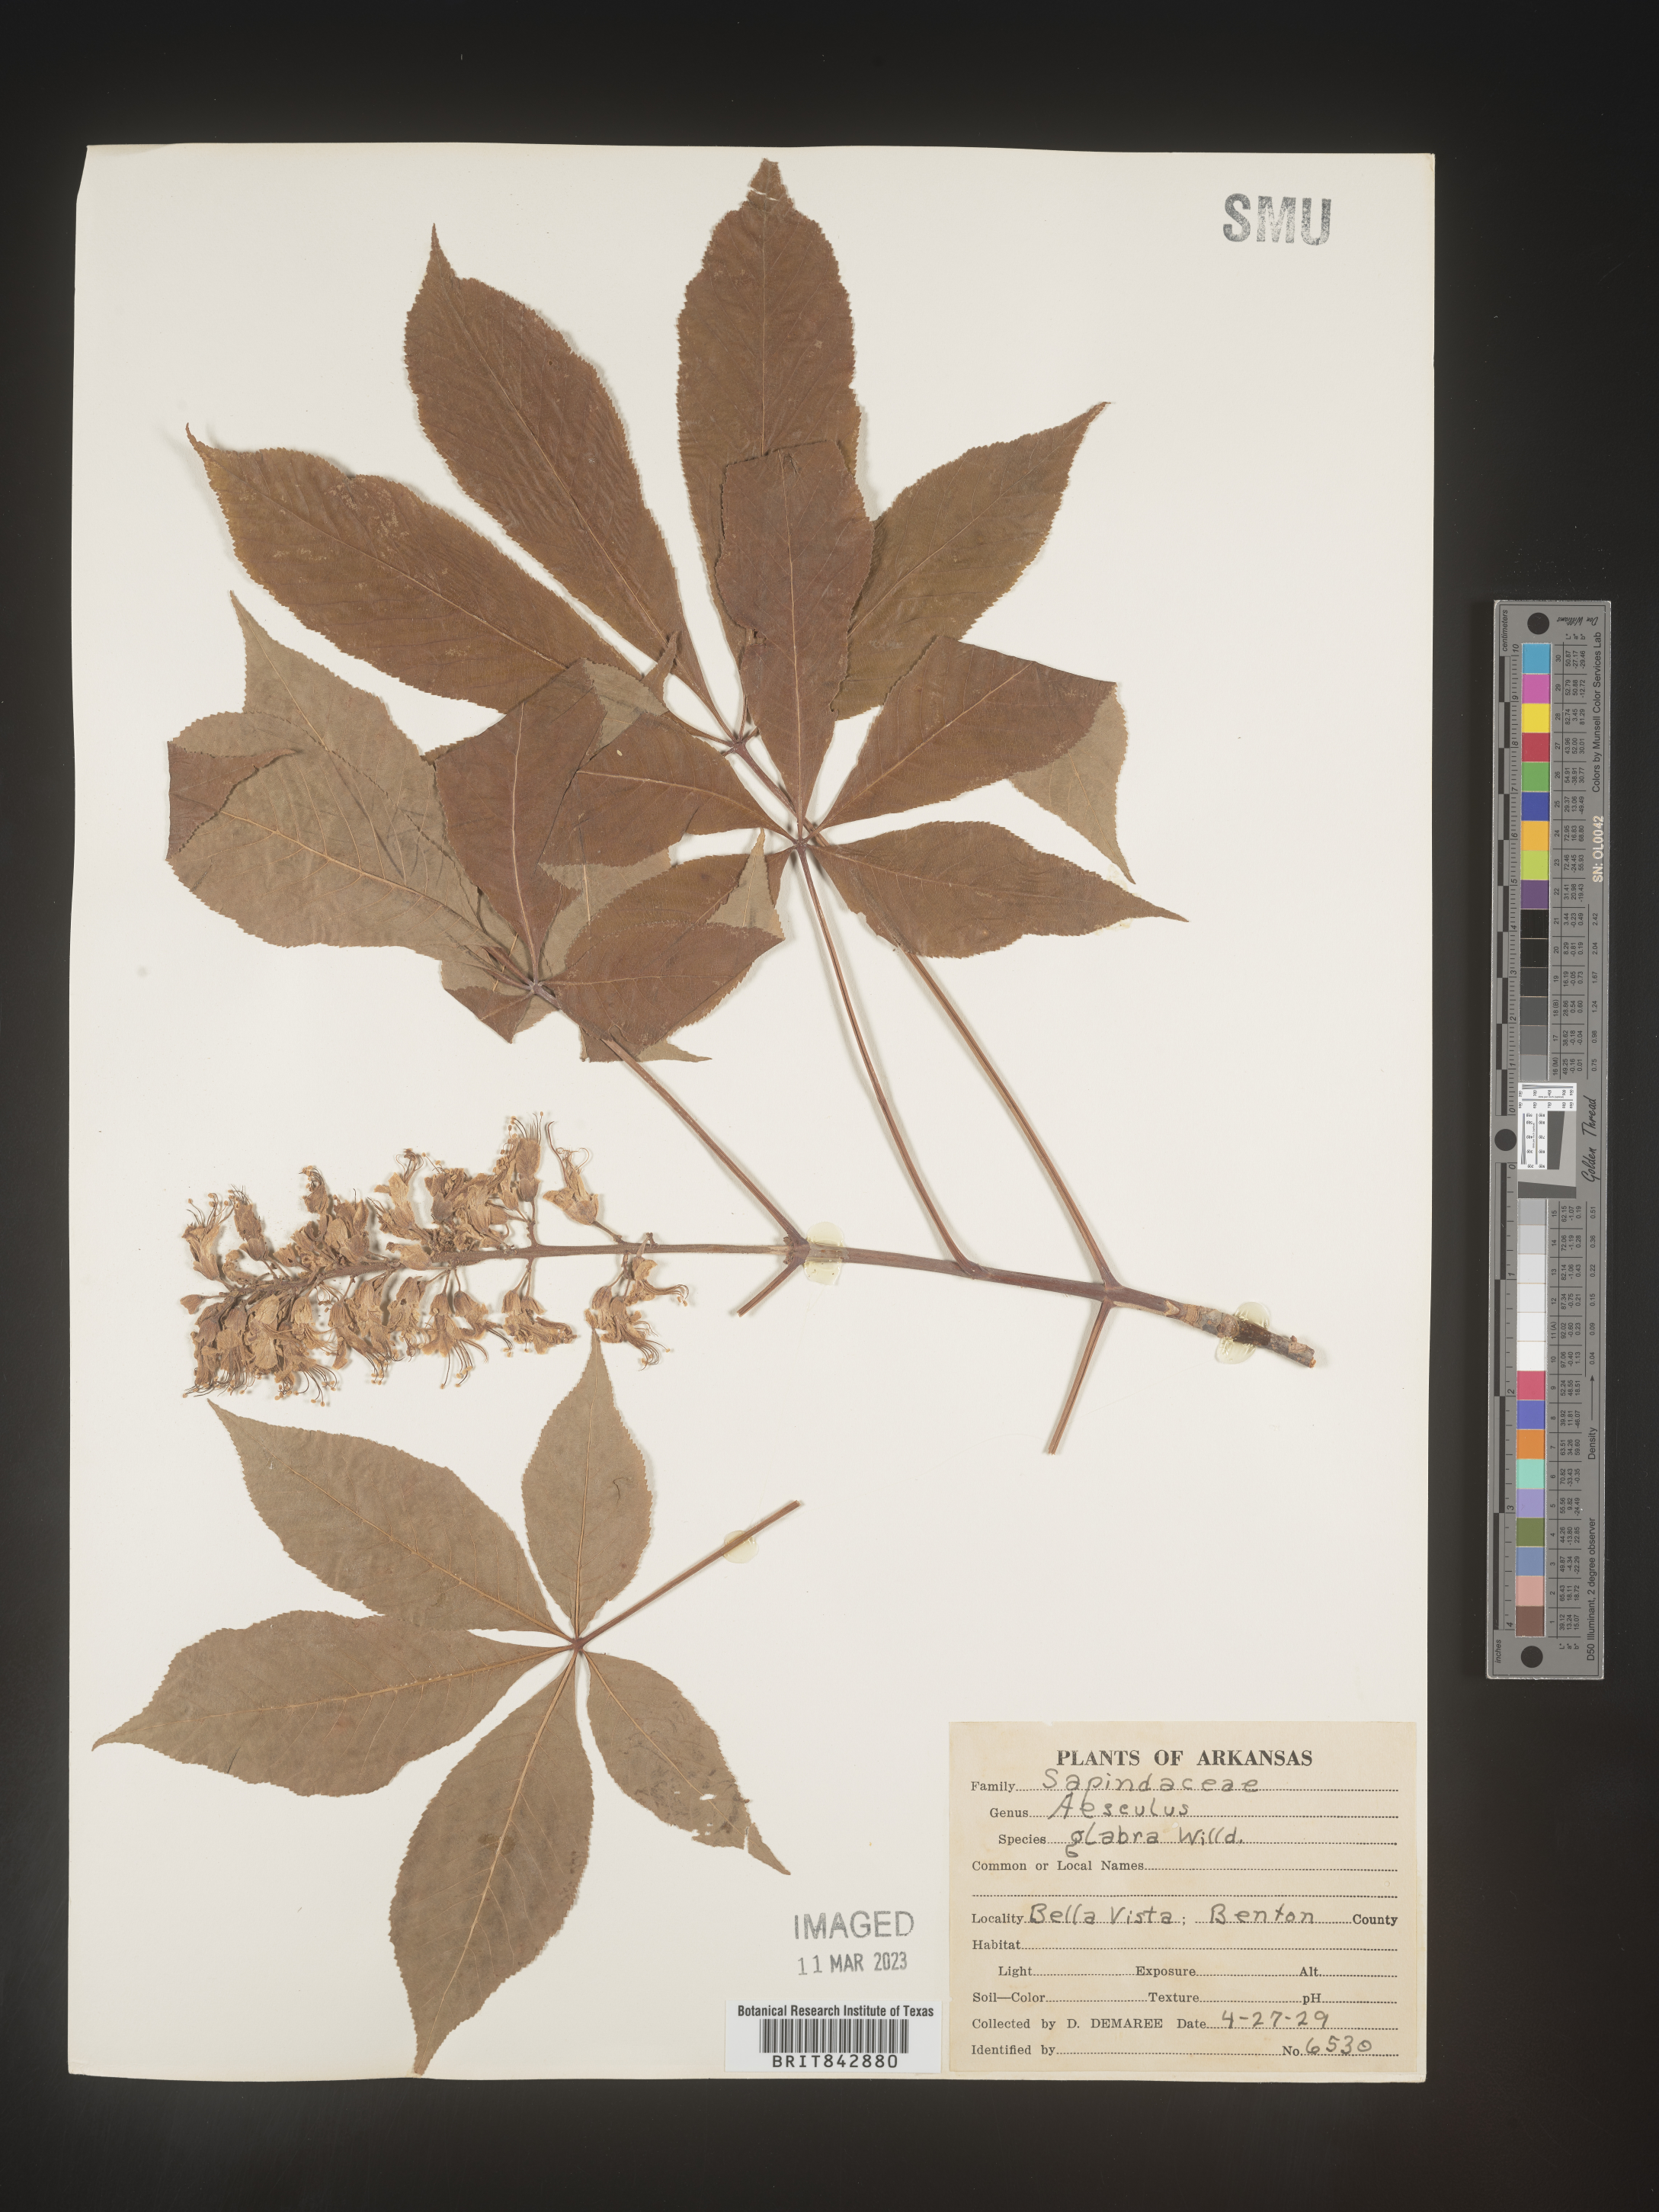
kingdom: Plantae
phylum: Tracheophyta
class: Magnoliopsida
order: Sapindales
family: Sapindaceae
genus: Aesculus
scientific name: Aesculus glabra
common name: Ohio buckeye
